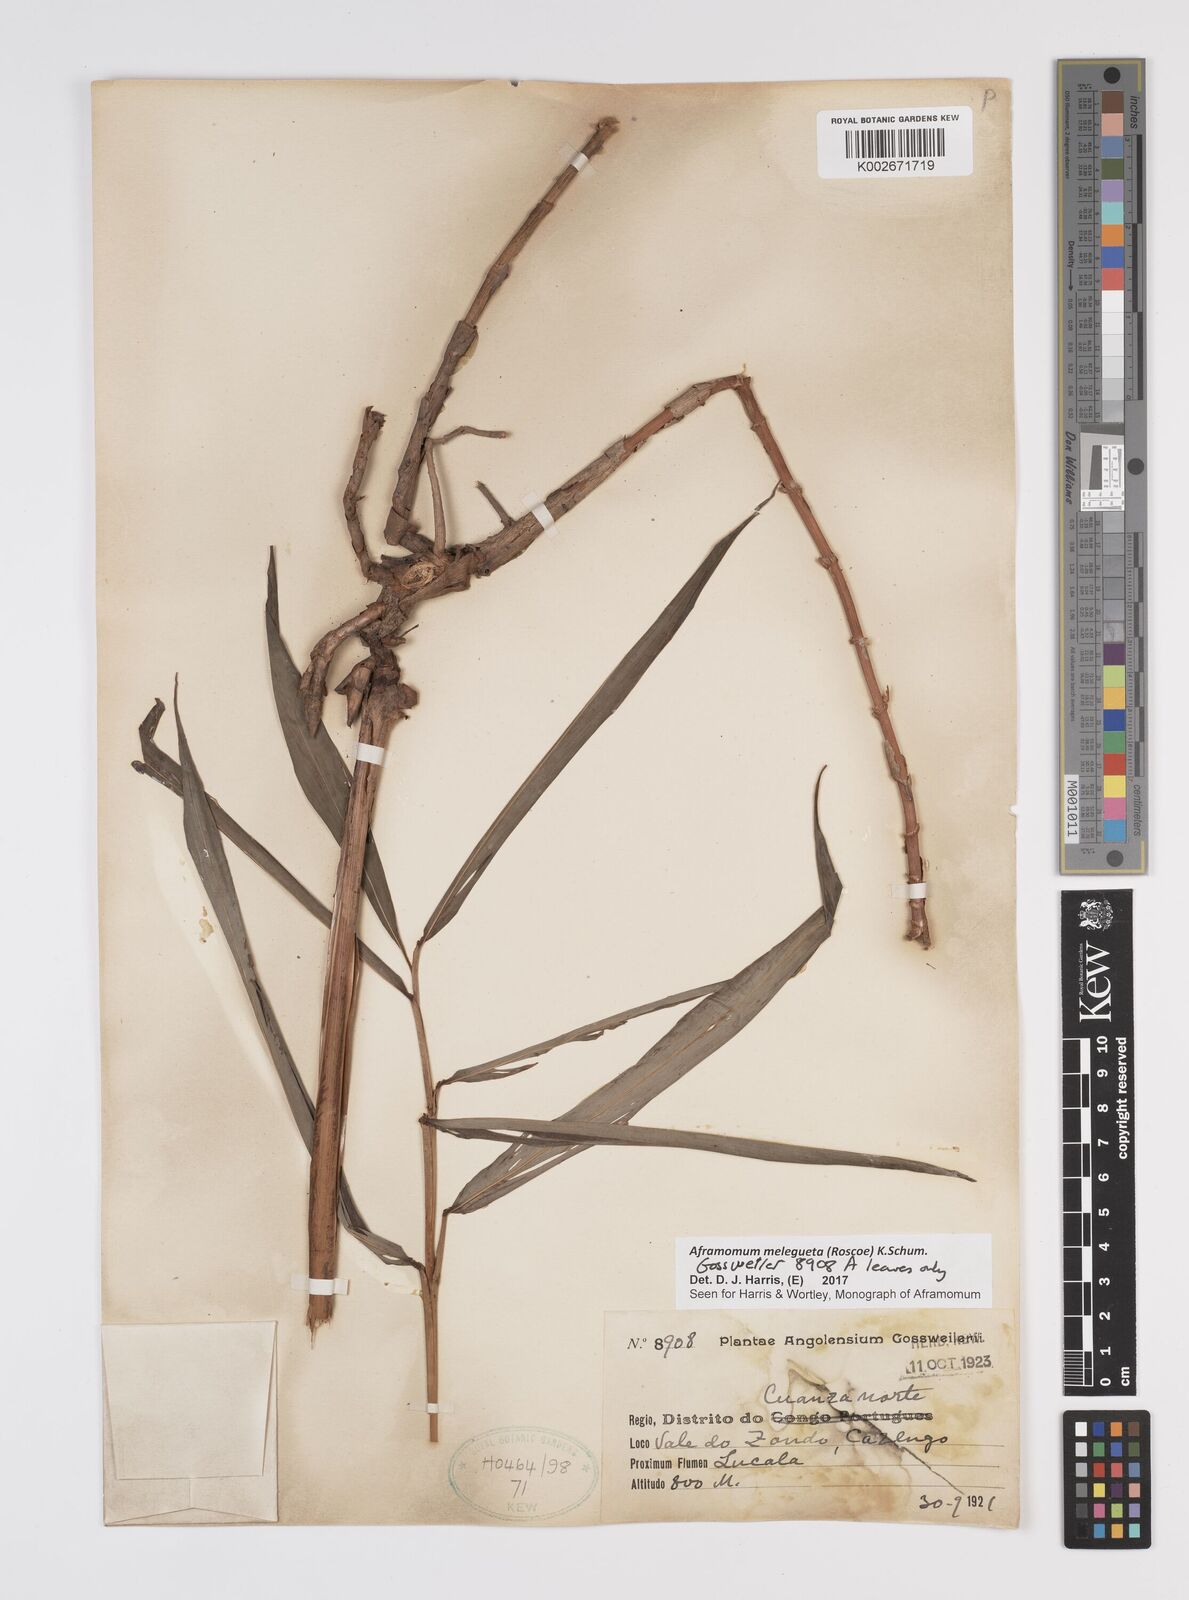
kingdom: Plantae
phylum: Tracheophyta
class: Liliopsida
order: Zingiberales
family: Zingiberaceae
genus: Aframomum
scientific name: Aframomum melegueta
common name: Grains of paradise
